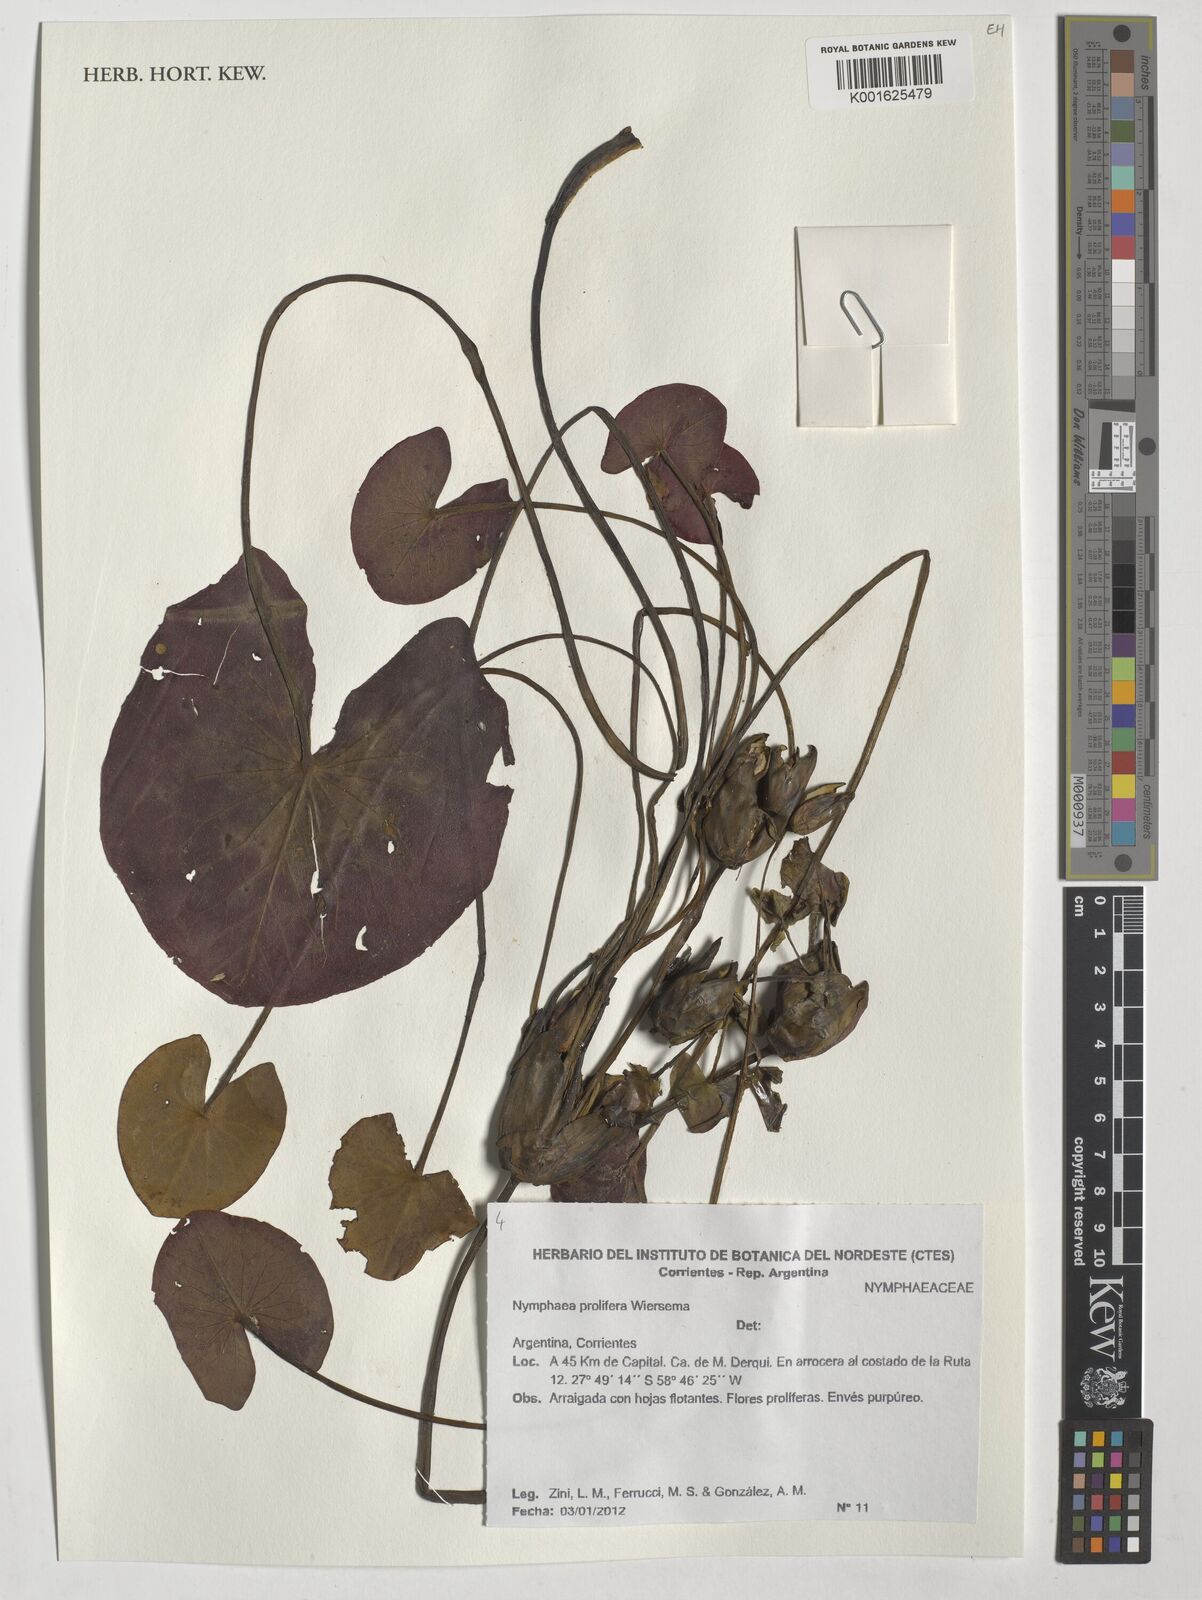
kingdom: Plantae
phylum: Tracheophyta
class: Magnoliopsida
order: Nymphaeales
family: Nymphaeaceae
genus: Nymphaea
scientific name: Nymphaea prolifera
